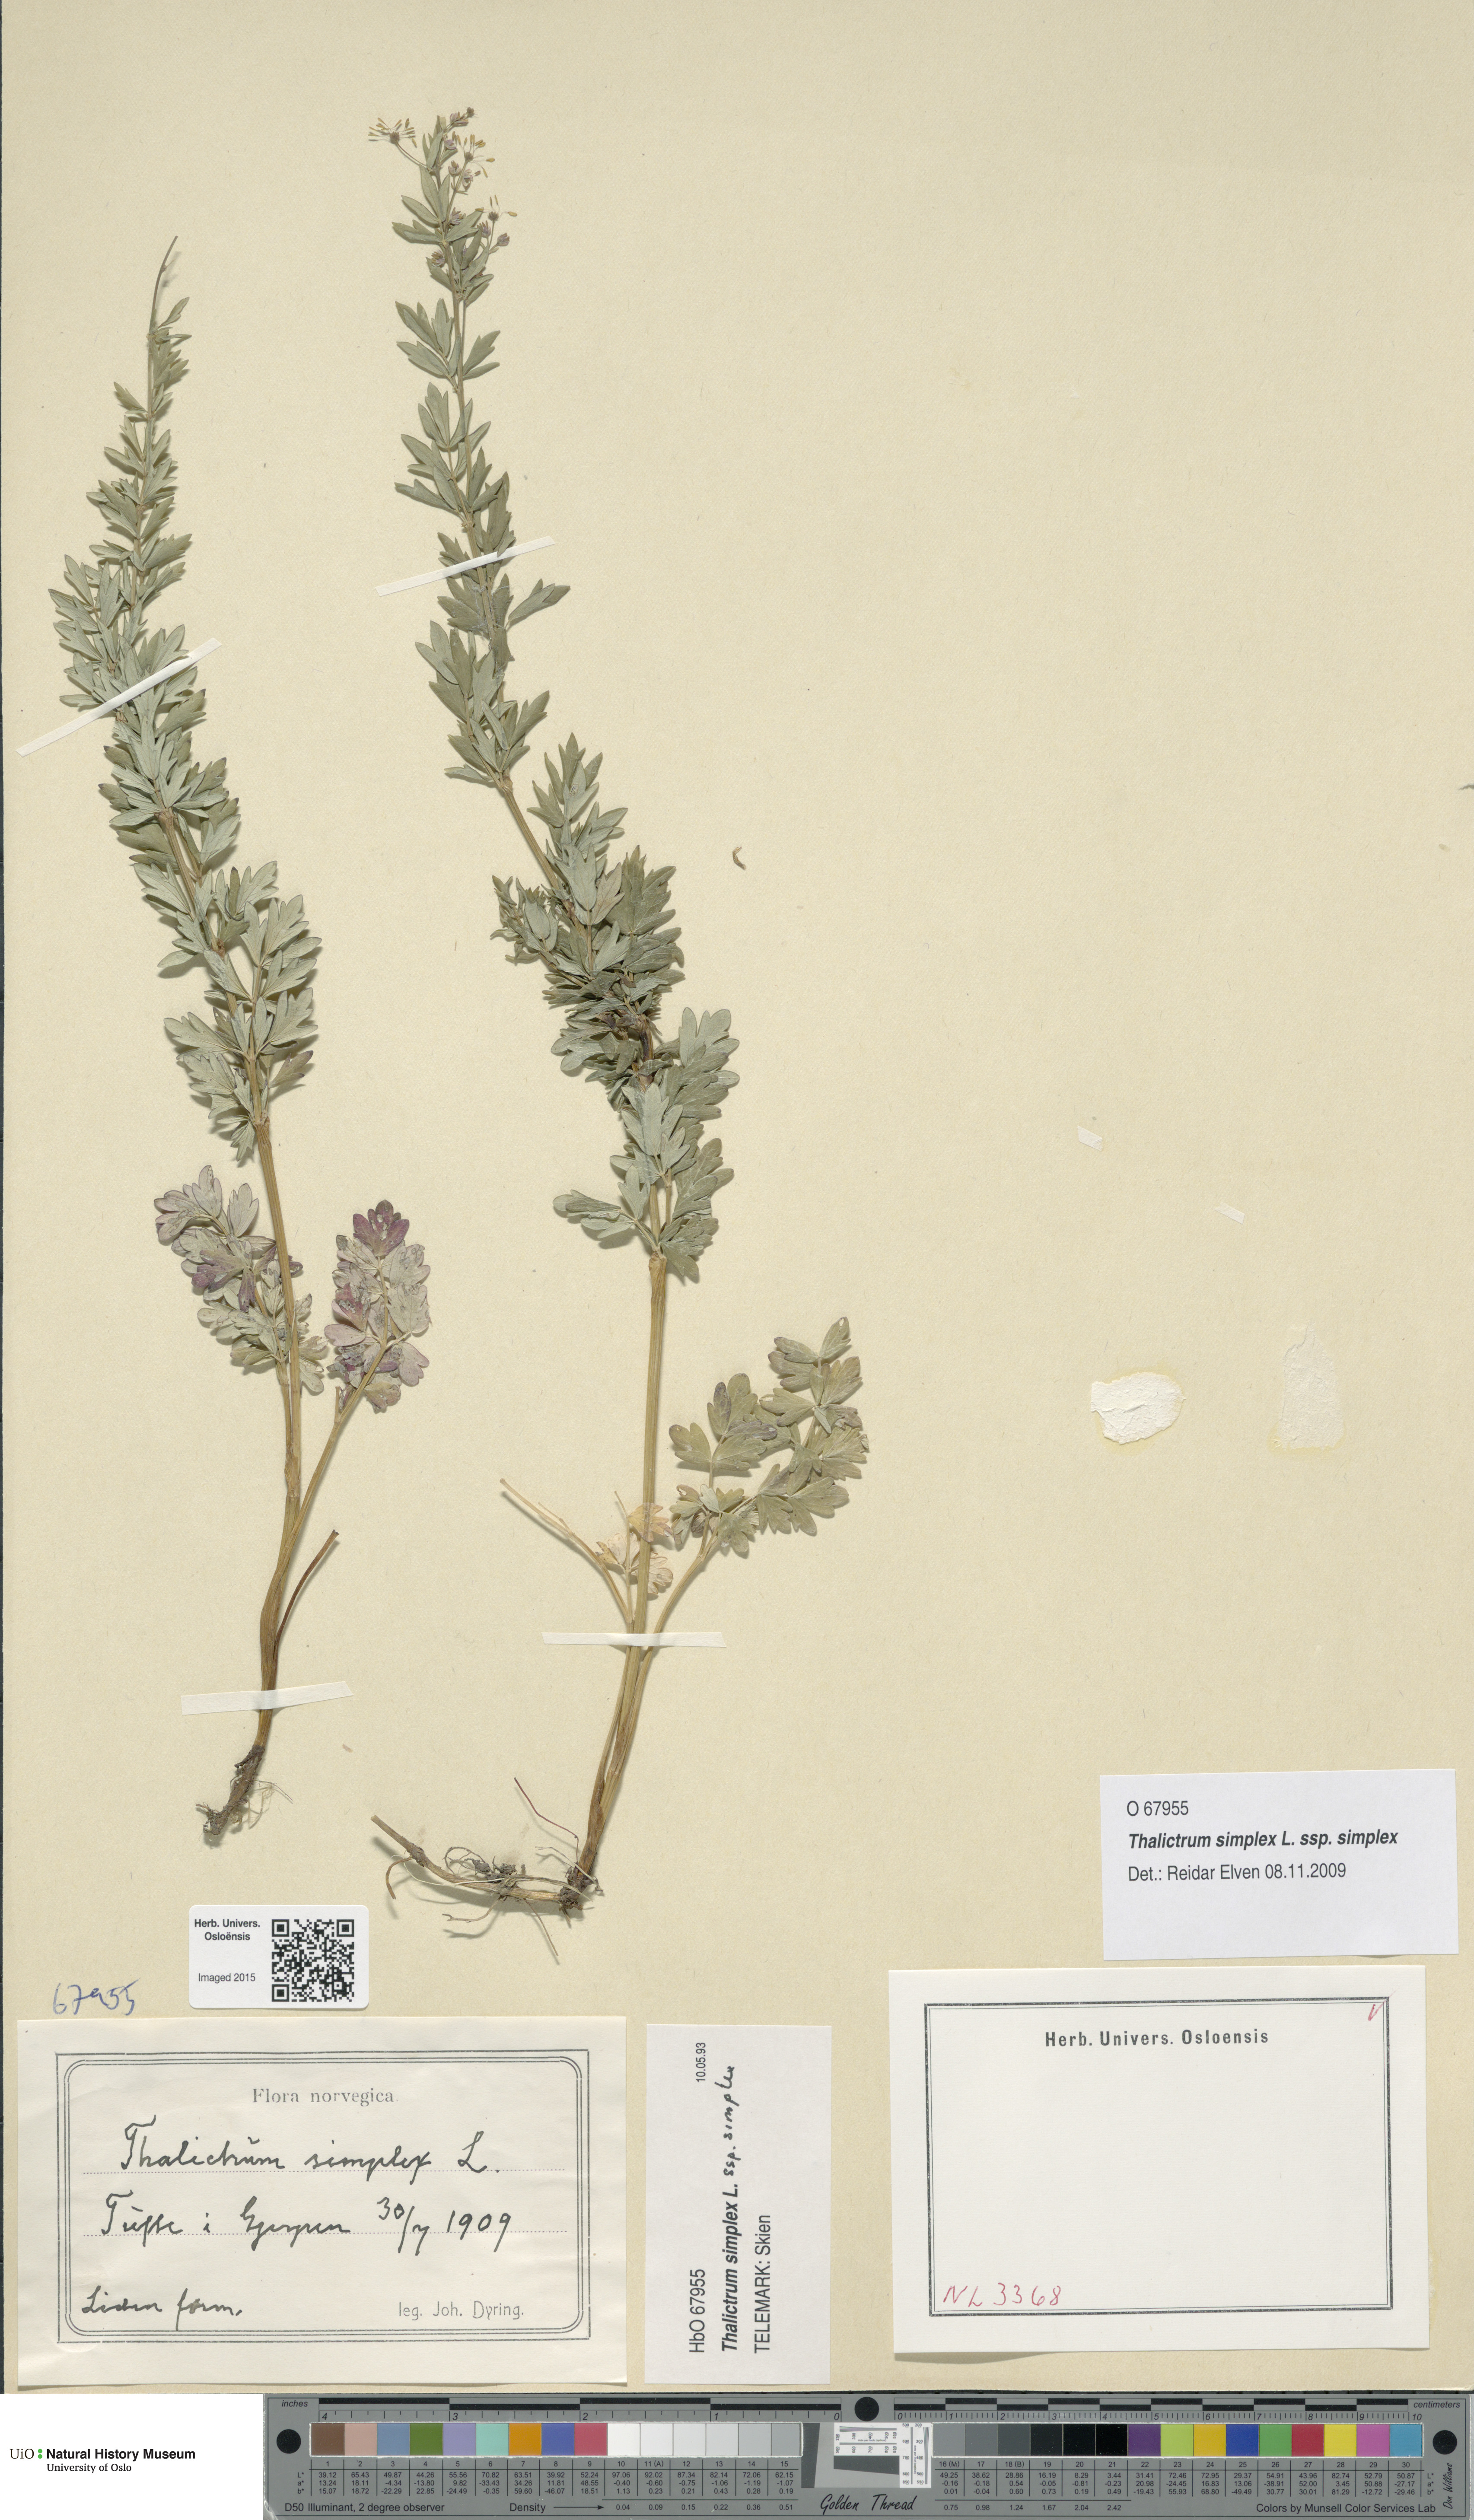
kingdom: Plantae
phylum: Tracheophyta
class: Magnoliopsida
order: Ranunculales
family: Ranunculaceae
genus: Thalictrum
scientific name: Thalictrum simplex
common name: Small meadow-rue
